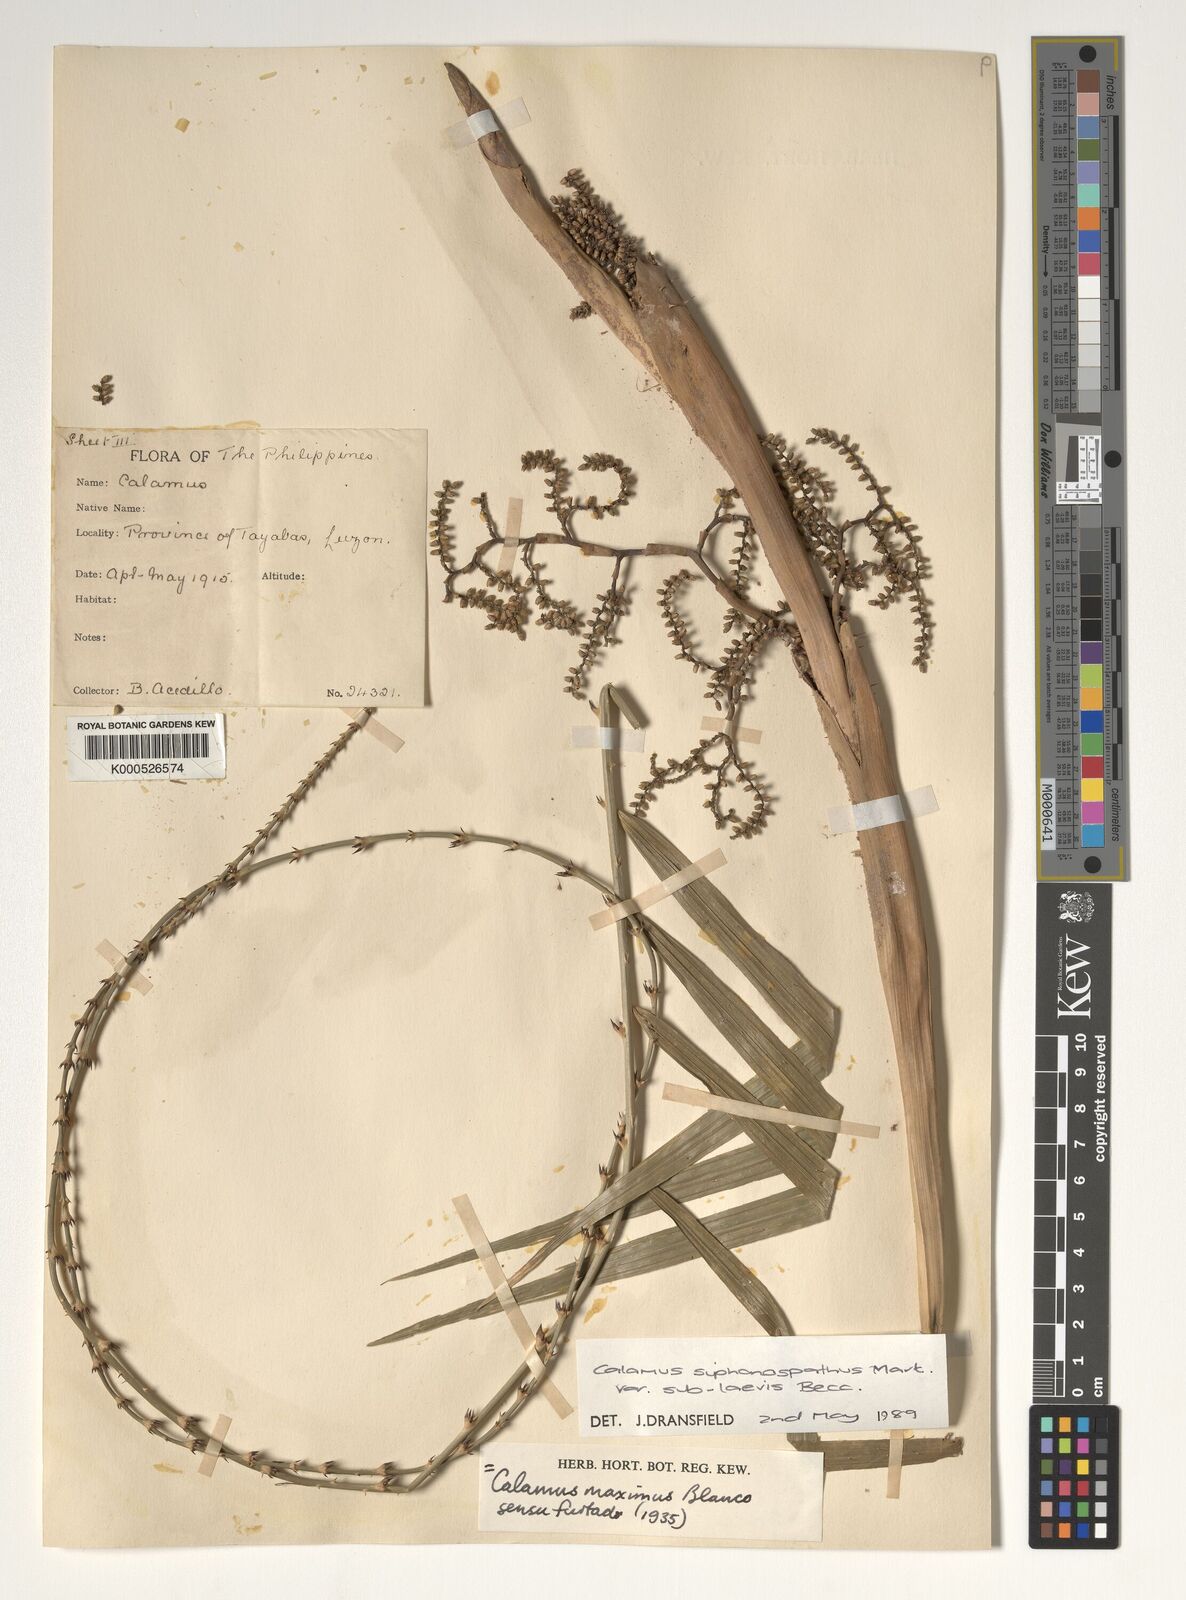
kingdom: Plantae
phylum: Tracheophyta
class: Liliopsida
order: Arecales
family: Arecaceae
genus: Calamus
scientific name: Calamus siphonospathus
